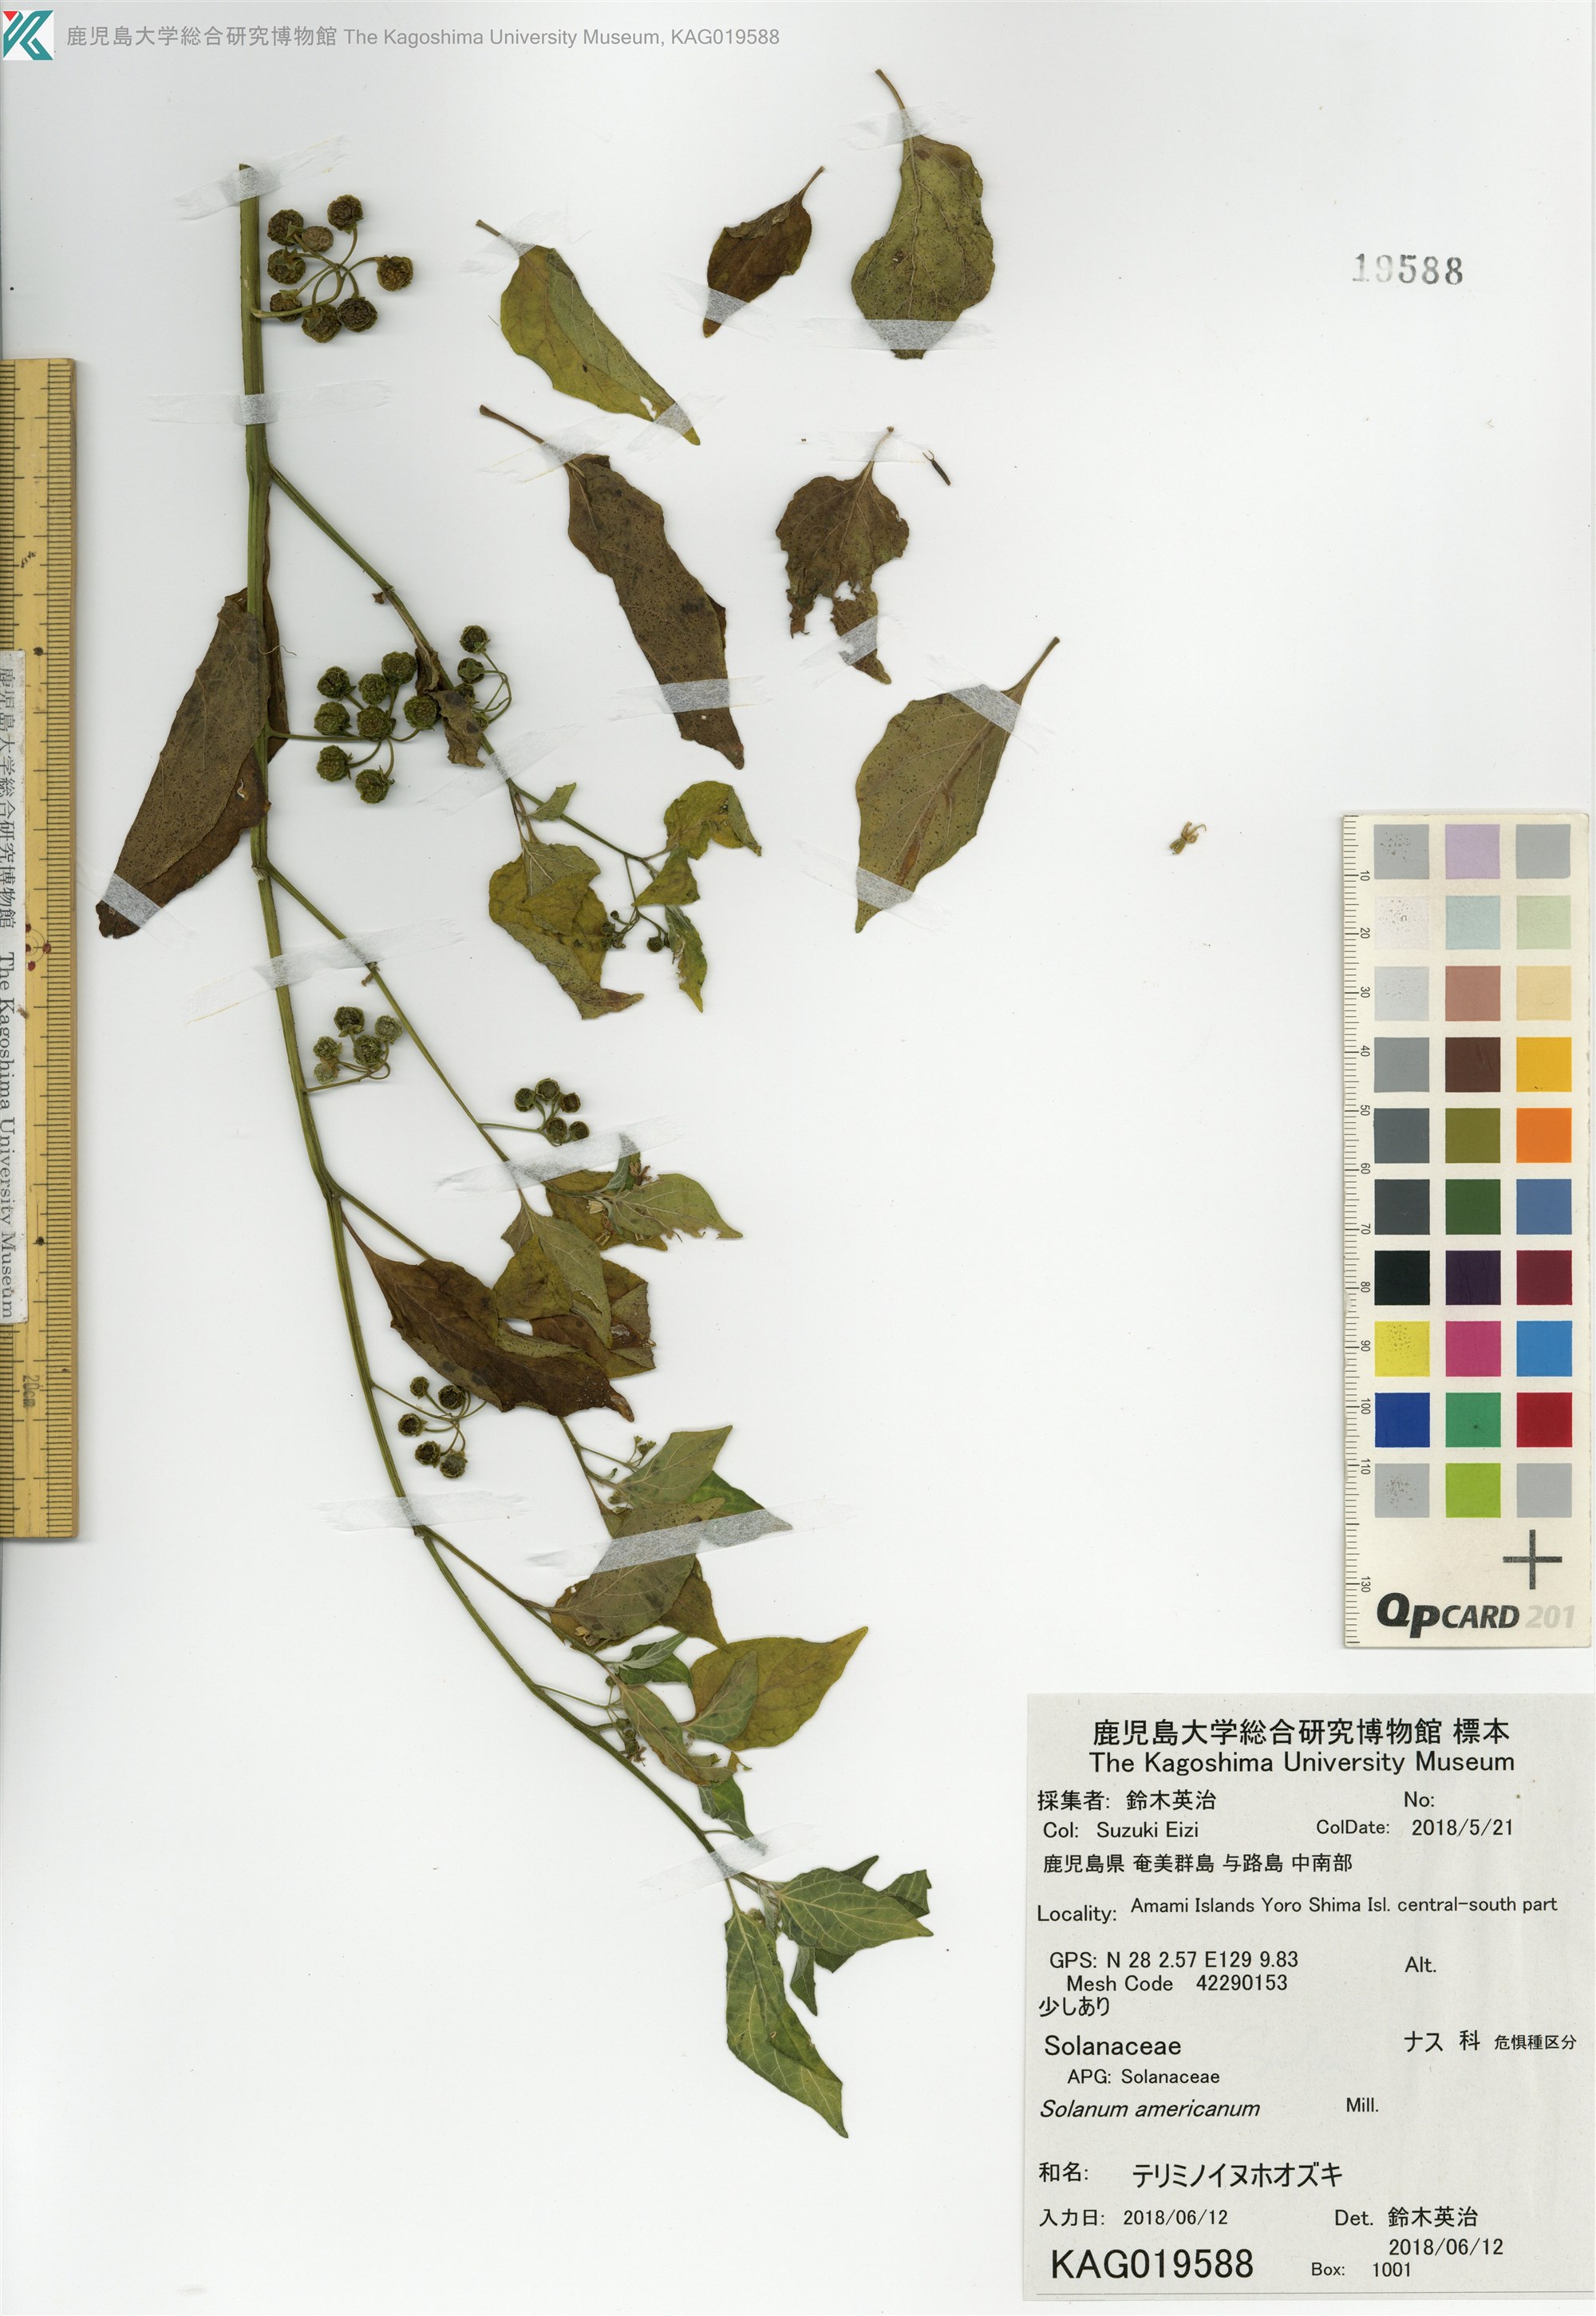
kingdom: Plantae
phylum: Tracheophyta
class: Magnoliopsida
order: Solanales
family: Solanaceae
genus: Solanum
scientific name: Solanum americanum
